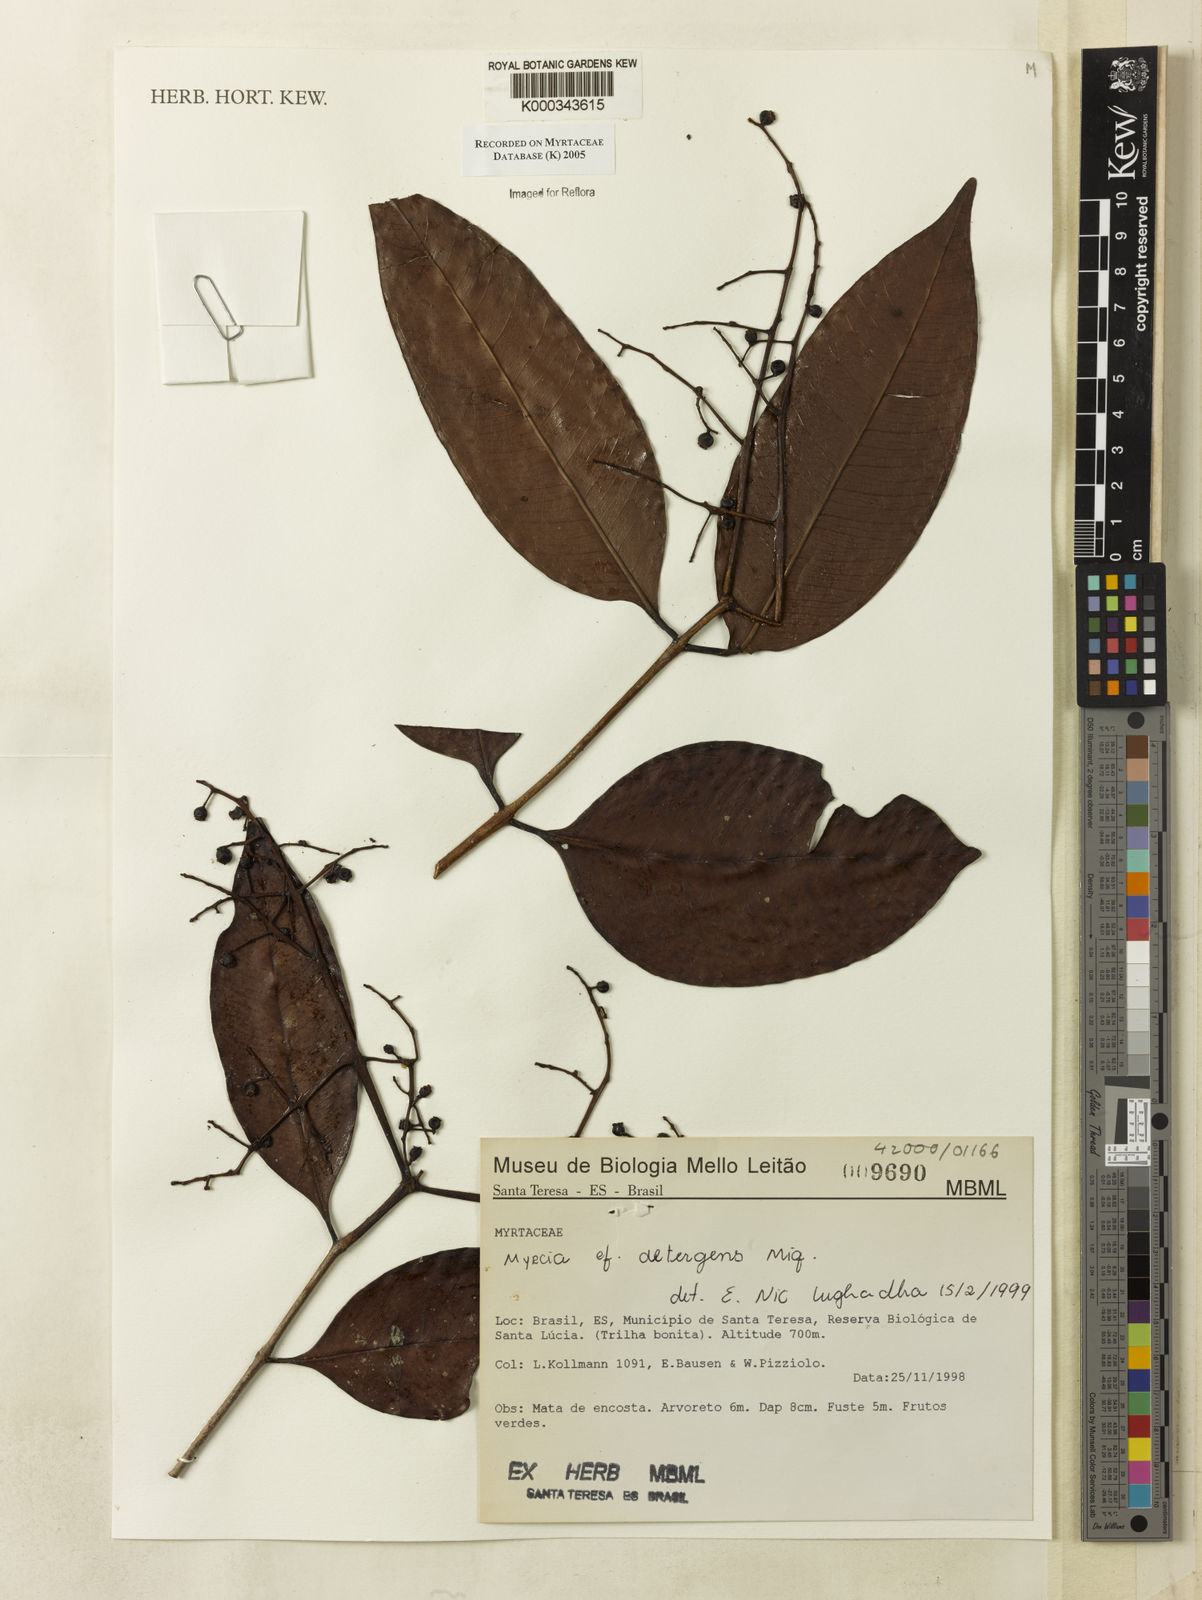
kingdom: Plantae
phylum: Tracheophyta
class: Magnoliopsida
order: Myrtales
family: Myrtaceae
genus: Myrcia
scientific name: Myrcia amazonica
